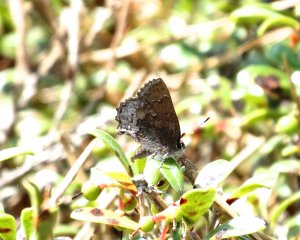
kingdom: Animalia
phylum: Arthropoda
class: Insecta
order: Lepidoptera
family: Lycaenidae
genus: Callophrys
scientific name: Callophrys polios
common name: Hoary Elfin
